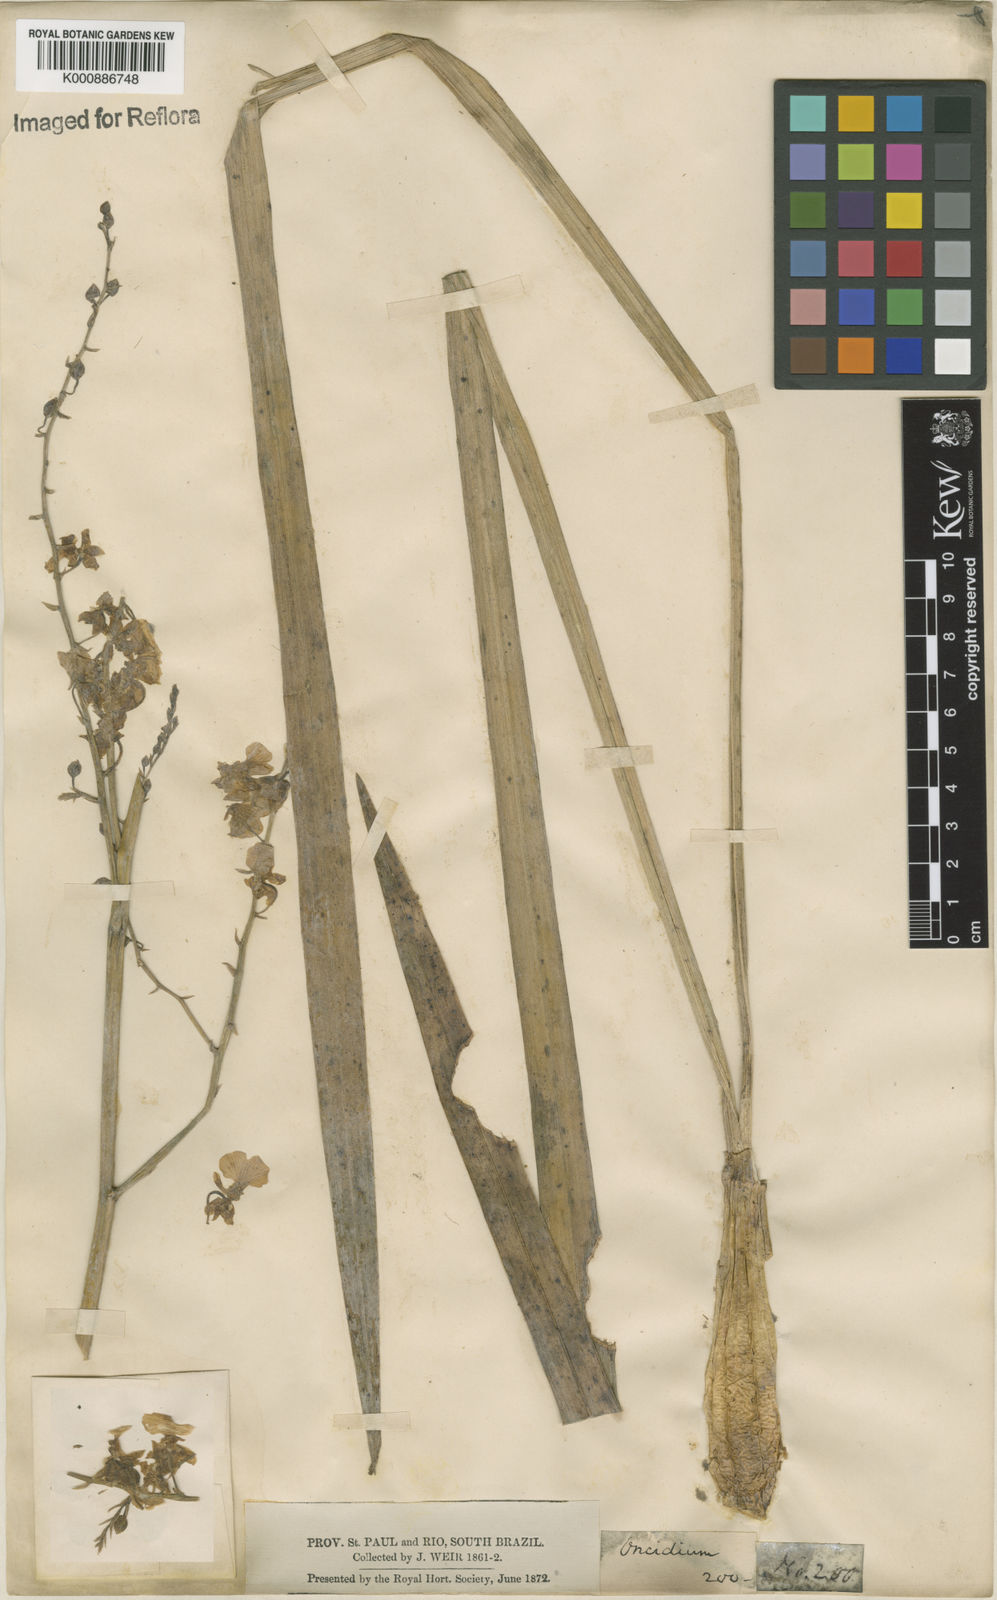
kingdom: Plantae
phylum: Tracheophyta
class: Liliopsida
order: Asparagales
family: Orchidaceae
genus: Gomesa
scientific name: Gomesa ramosa
